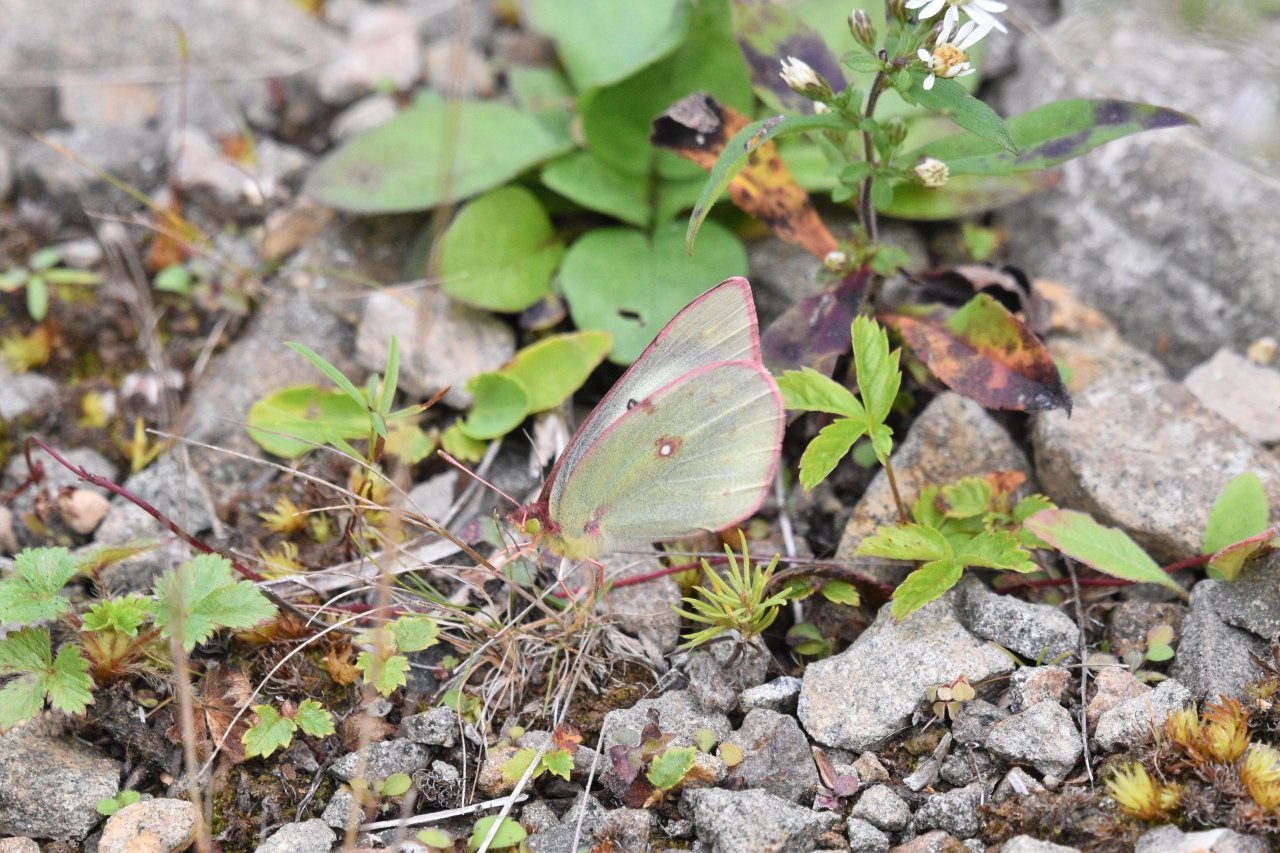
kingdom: Animalia
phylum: Arthropoda
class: Insecta
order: Lepidoptera
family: Pieridae
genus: Colias
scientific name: Colias philodice
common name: Clouded Sulphur
